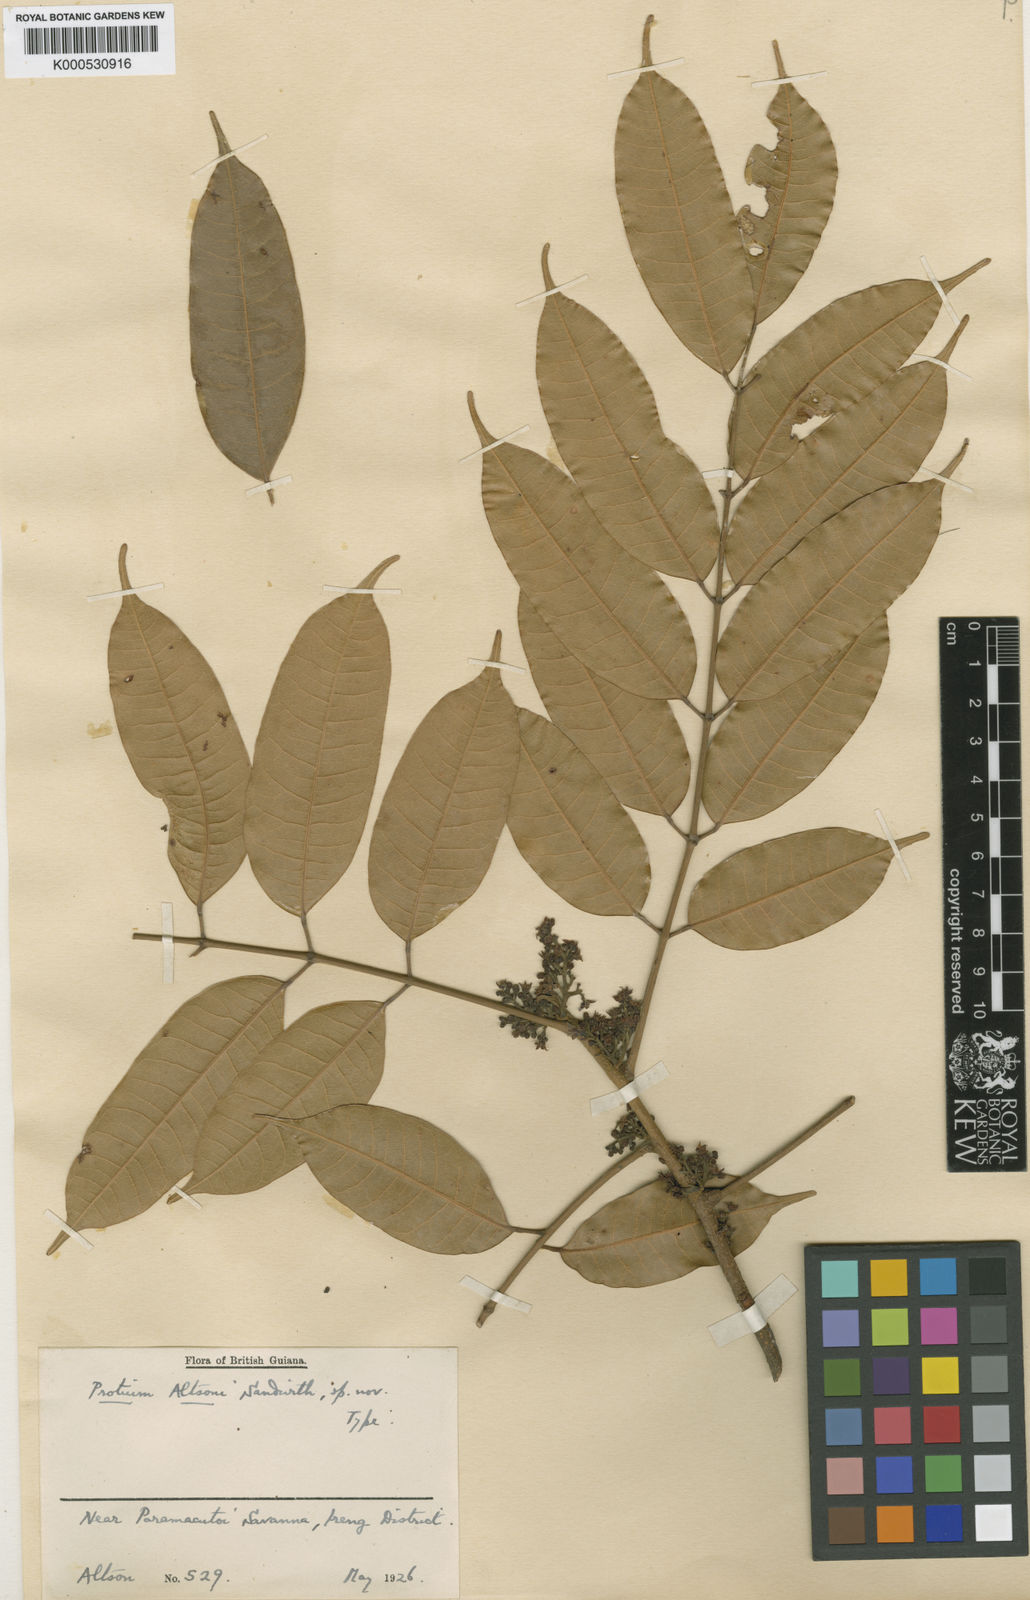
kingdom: Plantae
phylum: Tracheophyta
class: Magnoliopsida
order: Sapindales
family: Burseraceae
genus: Protium
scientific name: Protium altsonii
